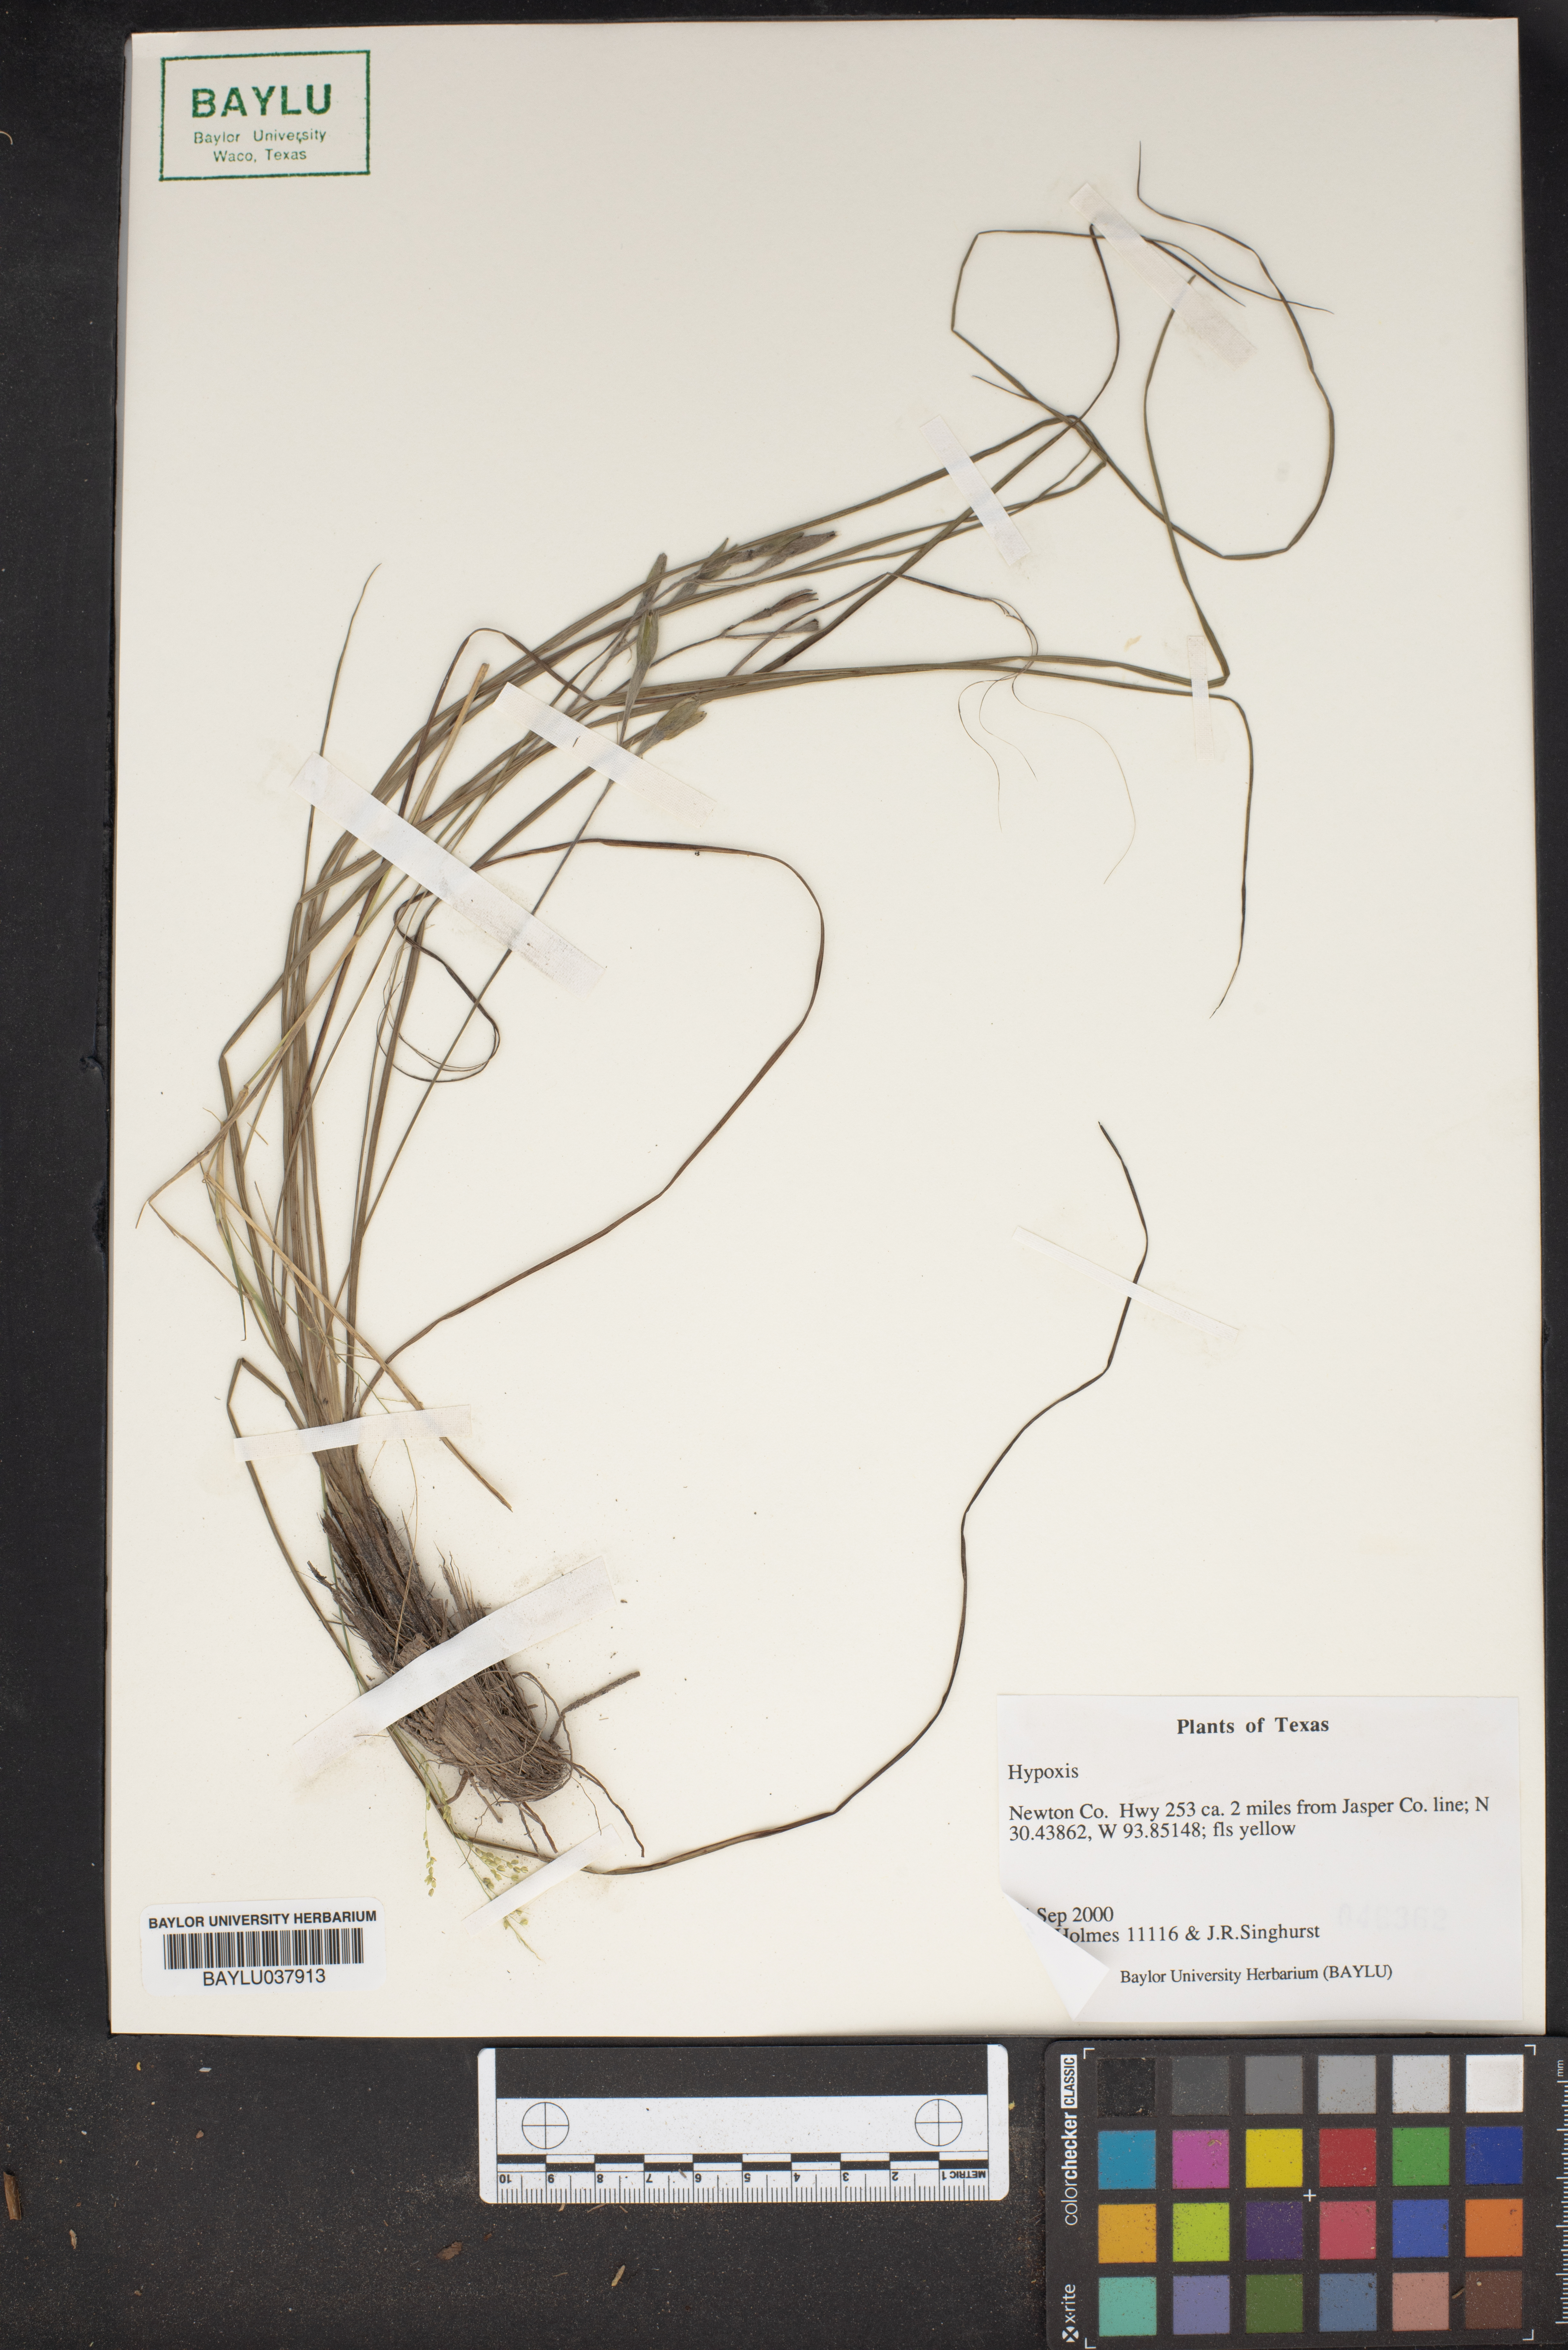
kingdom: Plantae
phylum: Tracheophyta
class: Liliopsida
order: Asparagales
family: Hypoxidaceae
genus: Hypoxis
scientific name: Hypoxis
